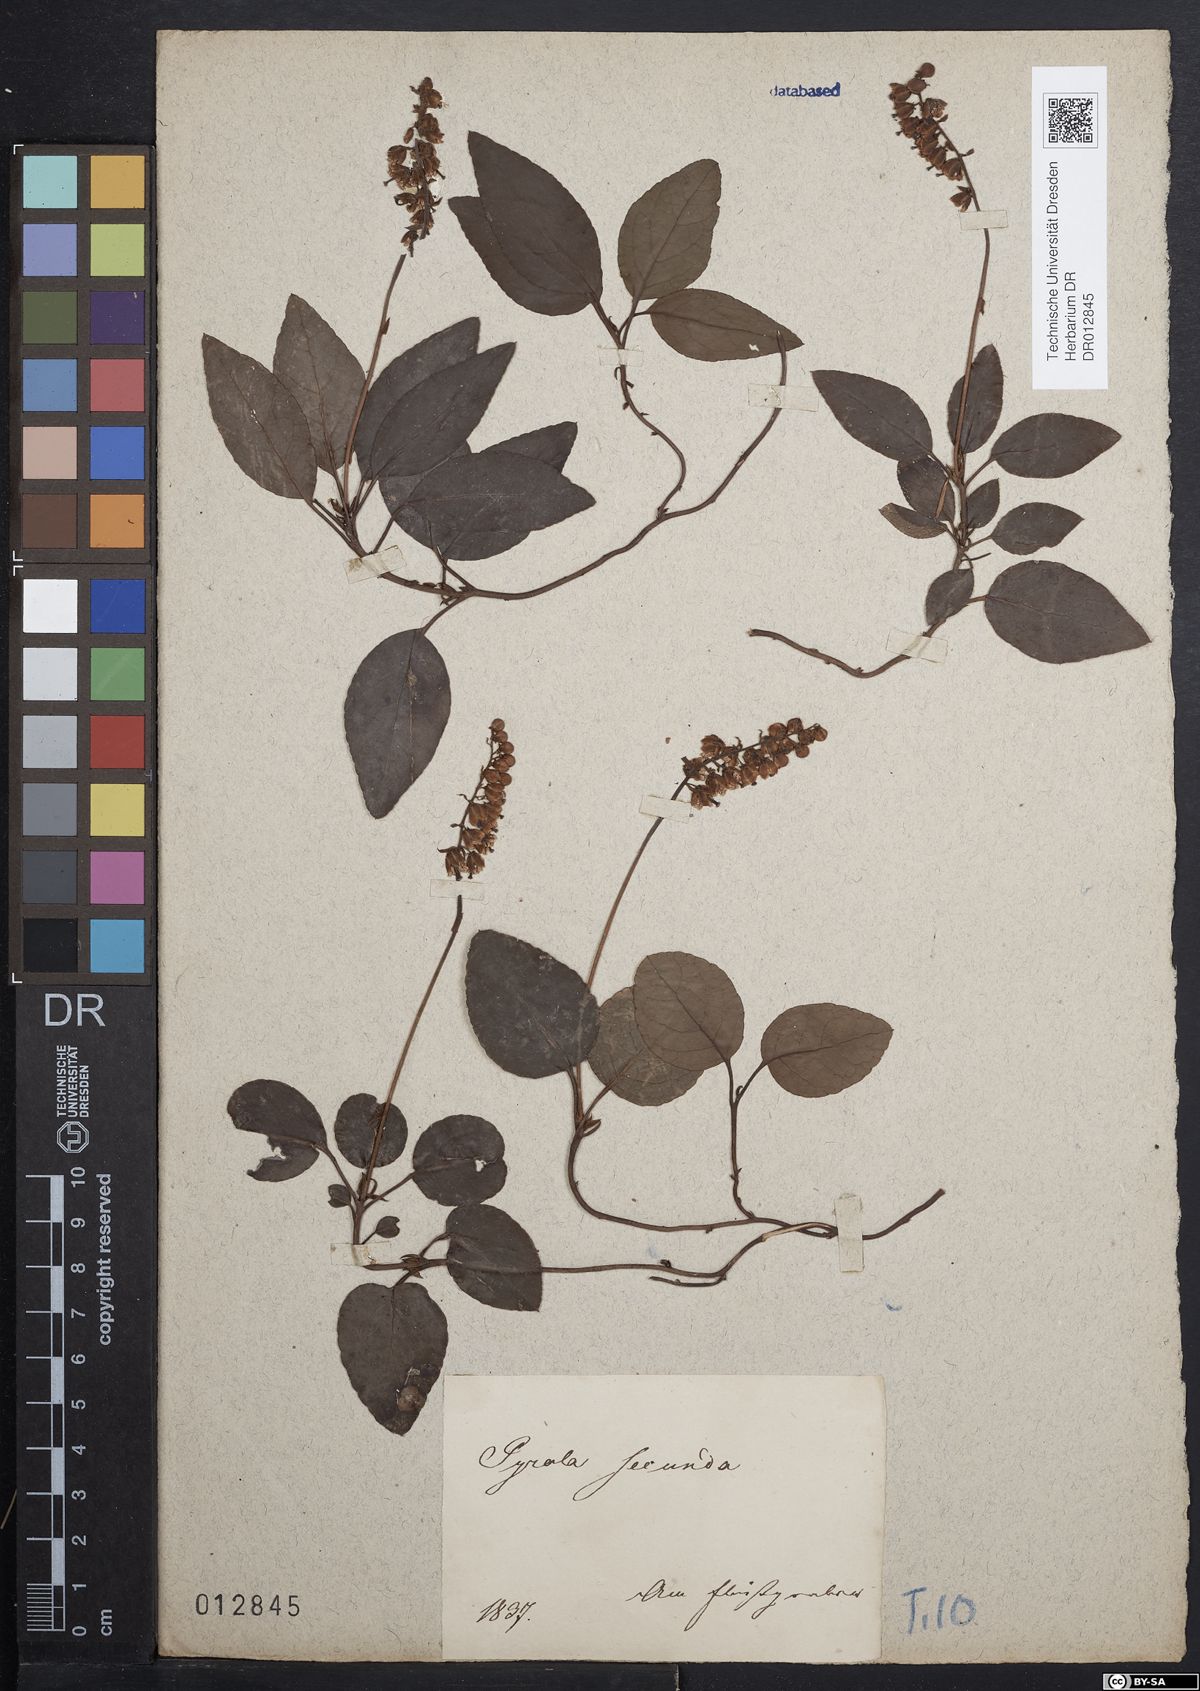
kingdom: Plantae
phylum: Tracheophyta
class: Magnoliopsida
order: Ericales
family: Ericaceae
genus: Orthilia
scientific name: Orthilia secunda
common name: One-sided orthilia
